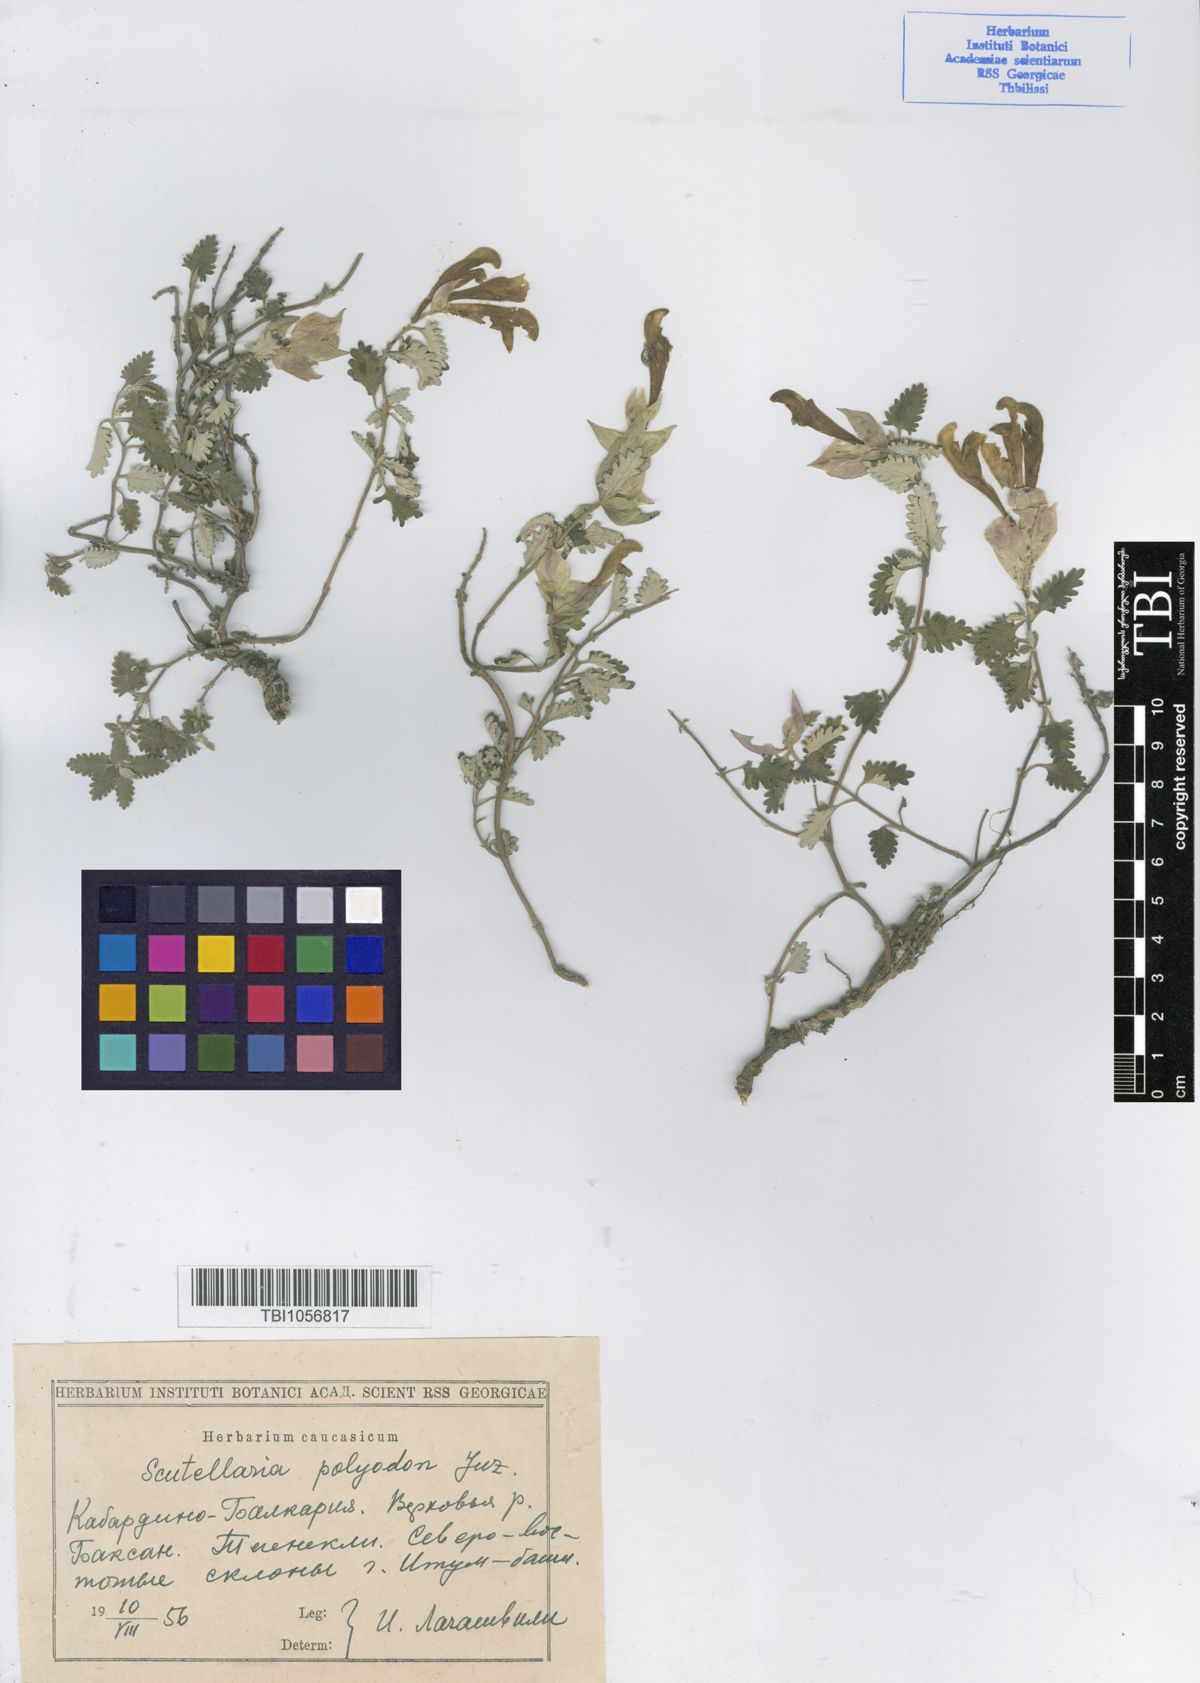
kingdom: Plantae
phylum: Tracheophyta
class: Magnoliopsida
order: Lamiales
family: Lamiaceae
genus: Scutellaria
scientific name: Scutellaria caucasica
